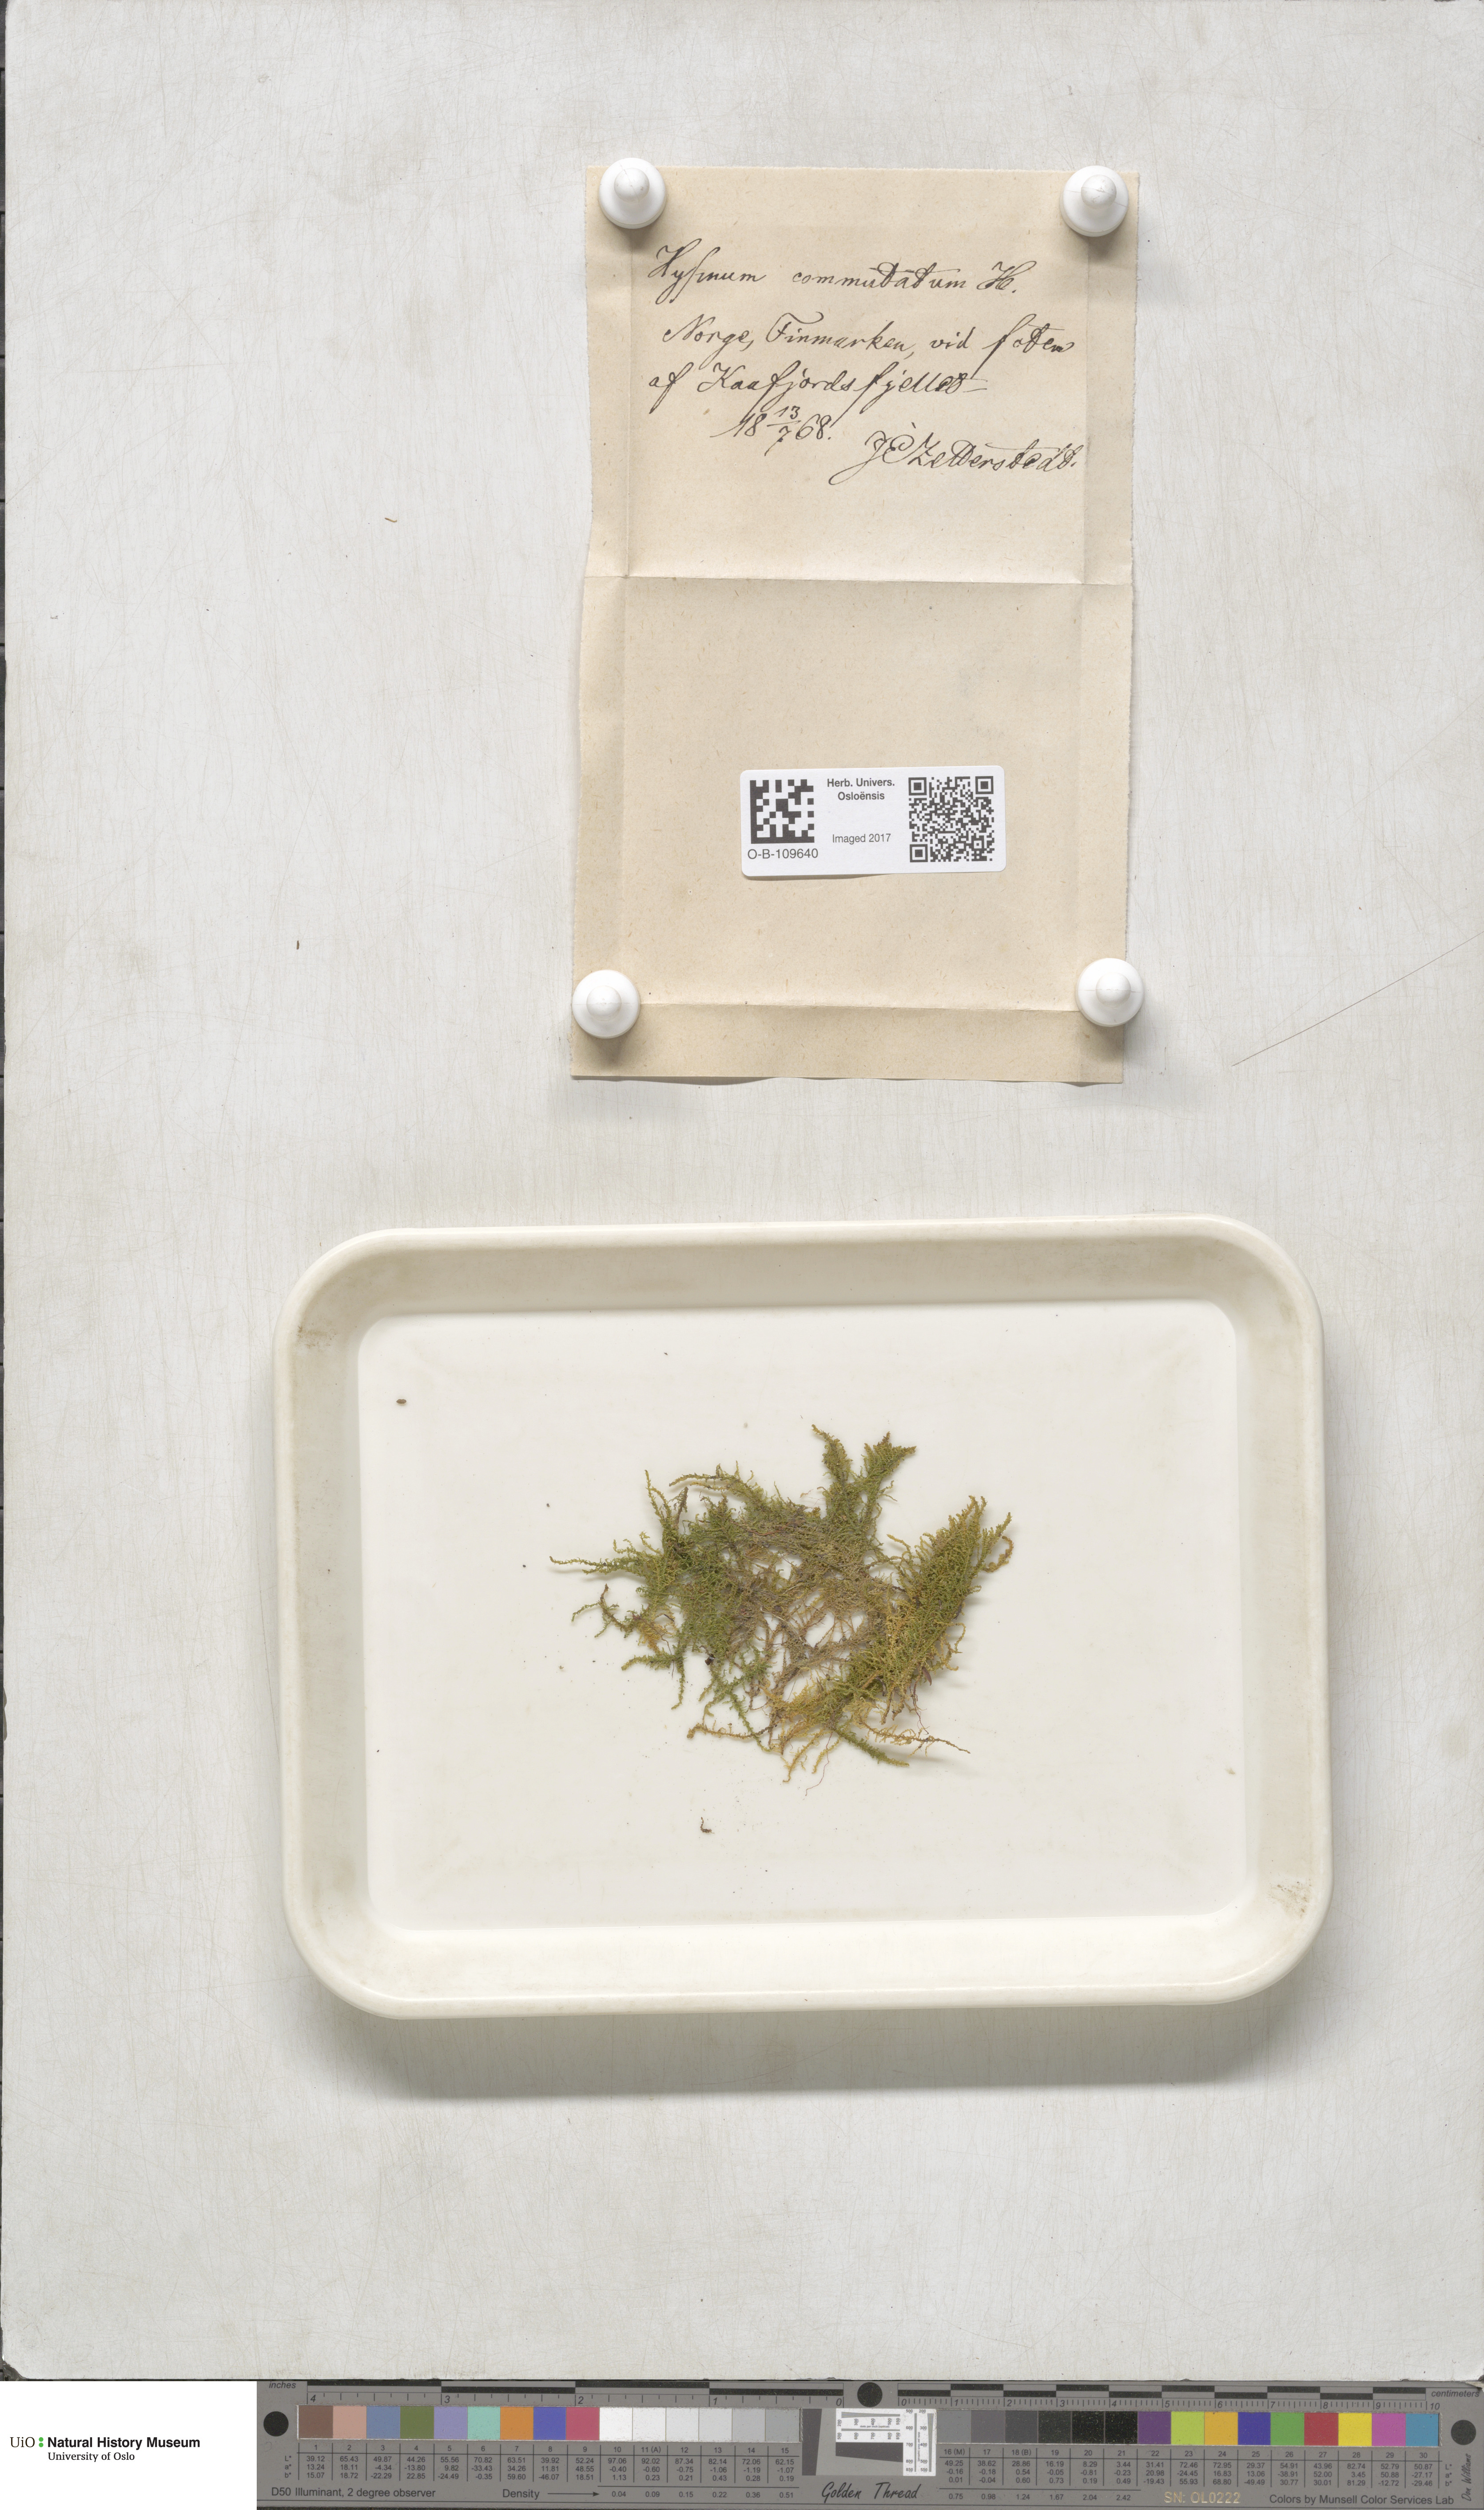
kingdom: Plantae
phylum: Bryophyta
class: Bryopsida
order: Hypnales
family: Amblystegiaceae
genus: Palustriella
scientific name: Palustriella commutata
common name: Curled hook-moss
